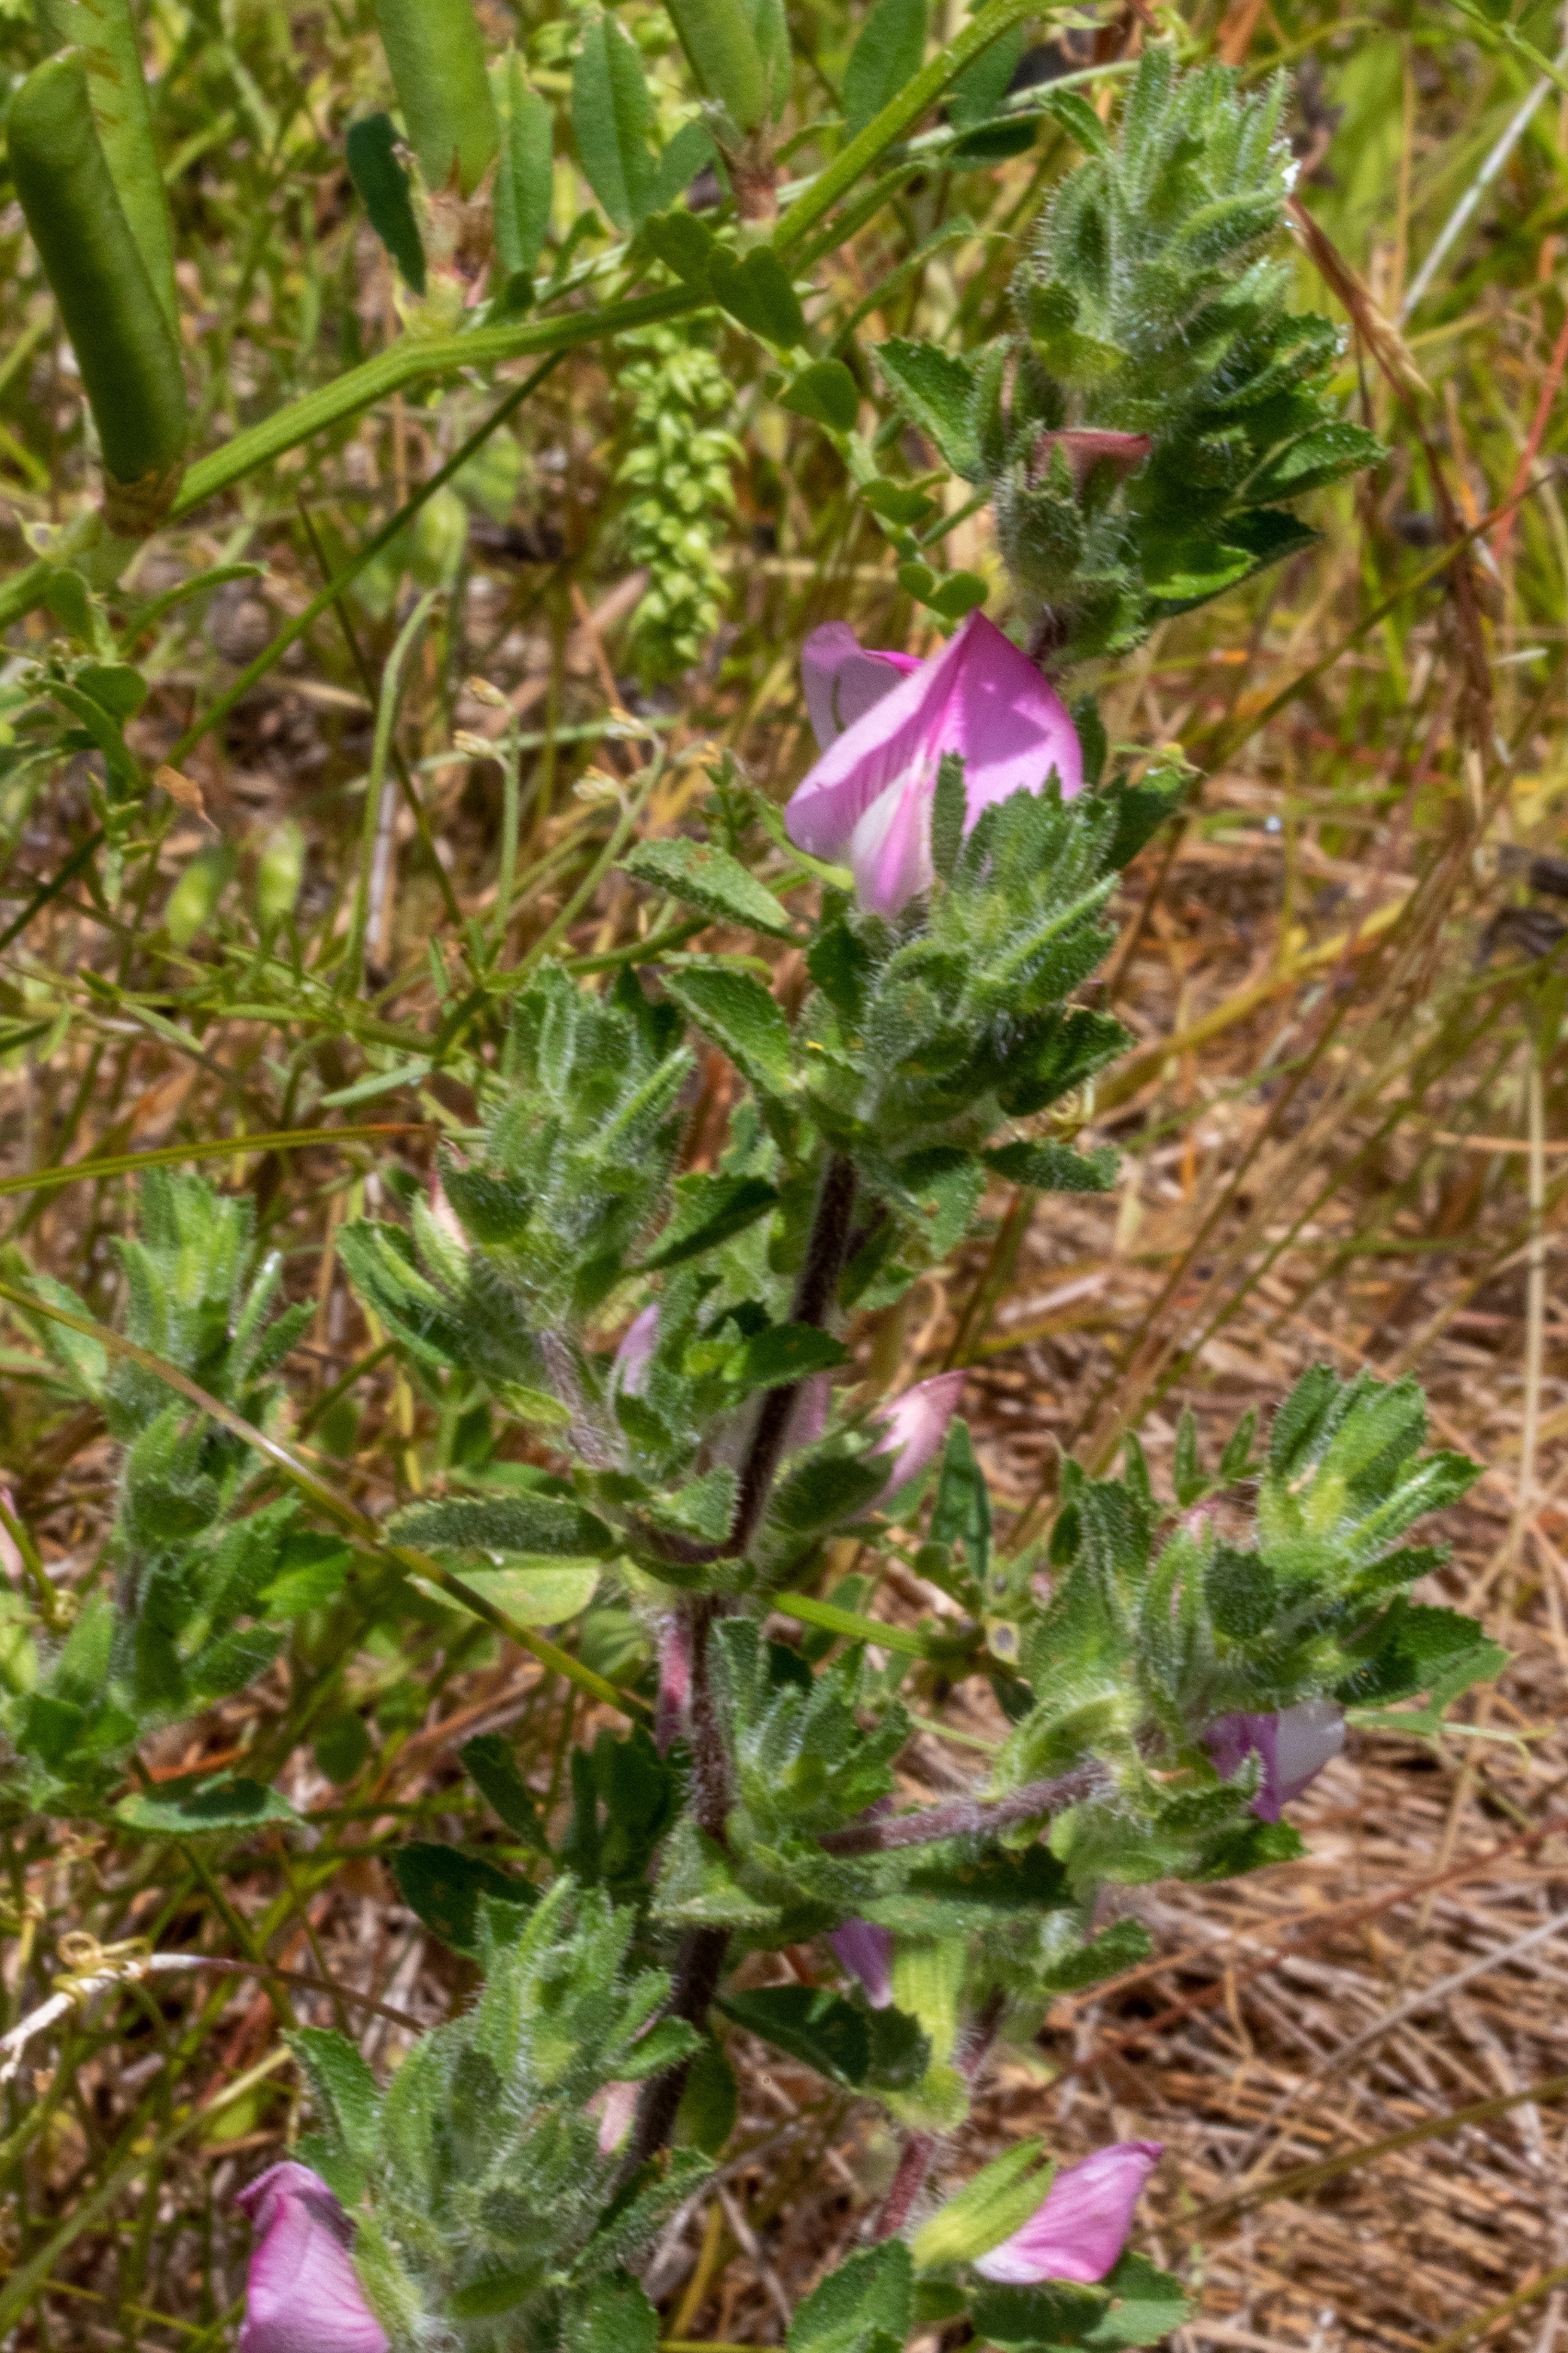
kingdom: Plantae
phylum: Tracheophyta
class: Magnoliopsida
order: Fabales
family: Fabaceae
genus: Ononis
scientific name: Ononis spinosa
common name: Mark-krageklo
